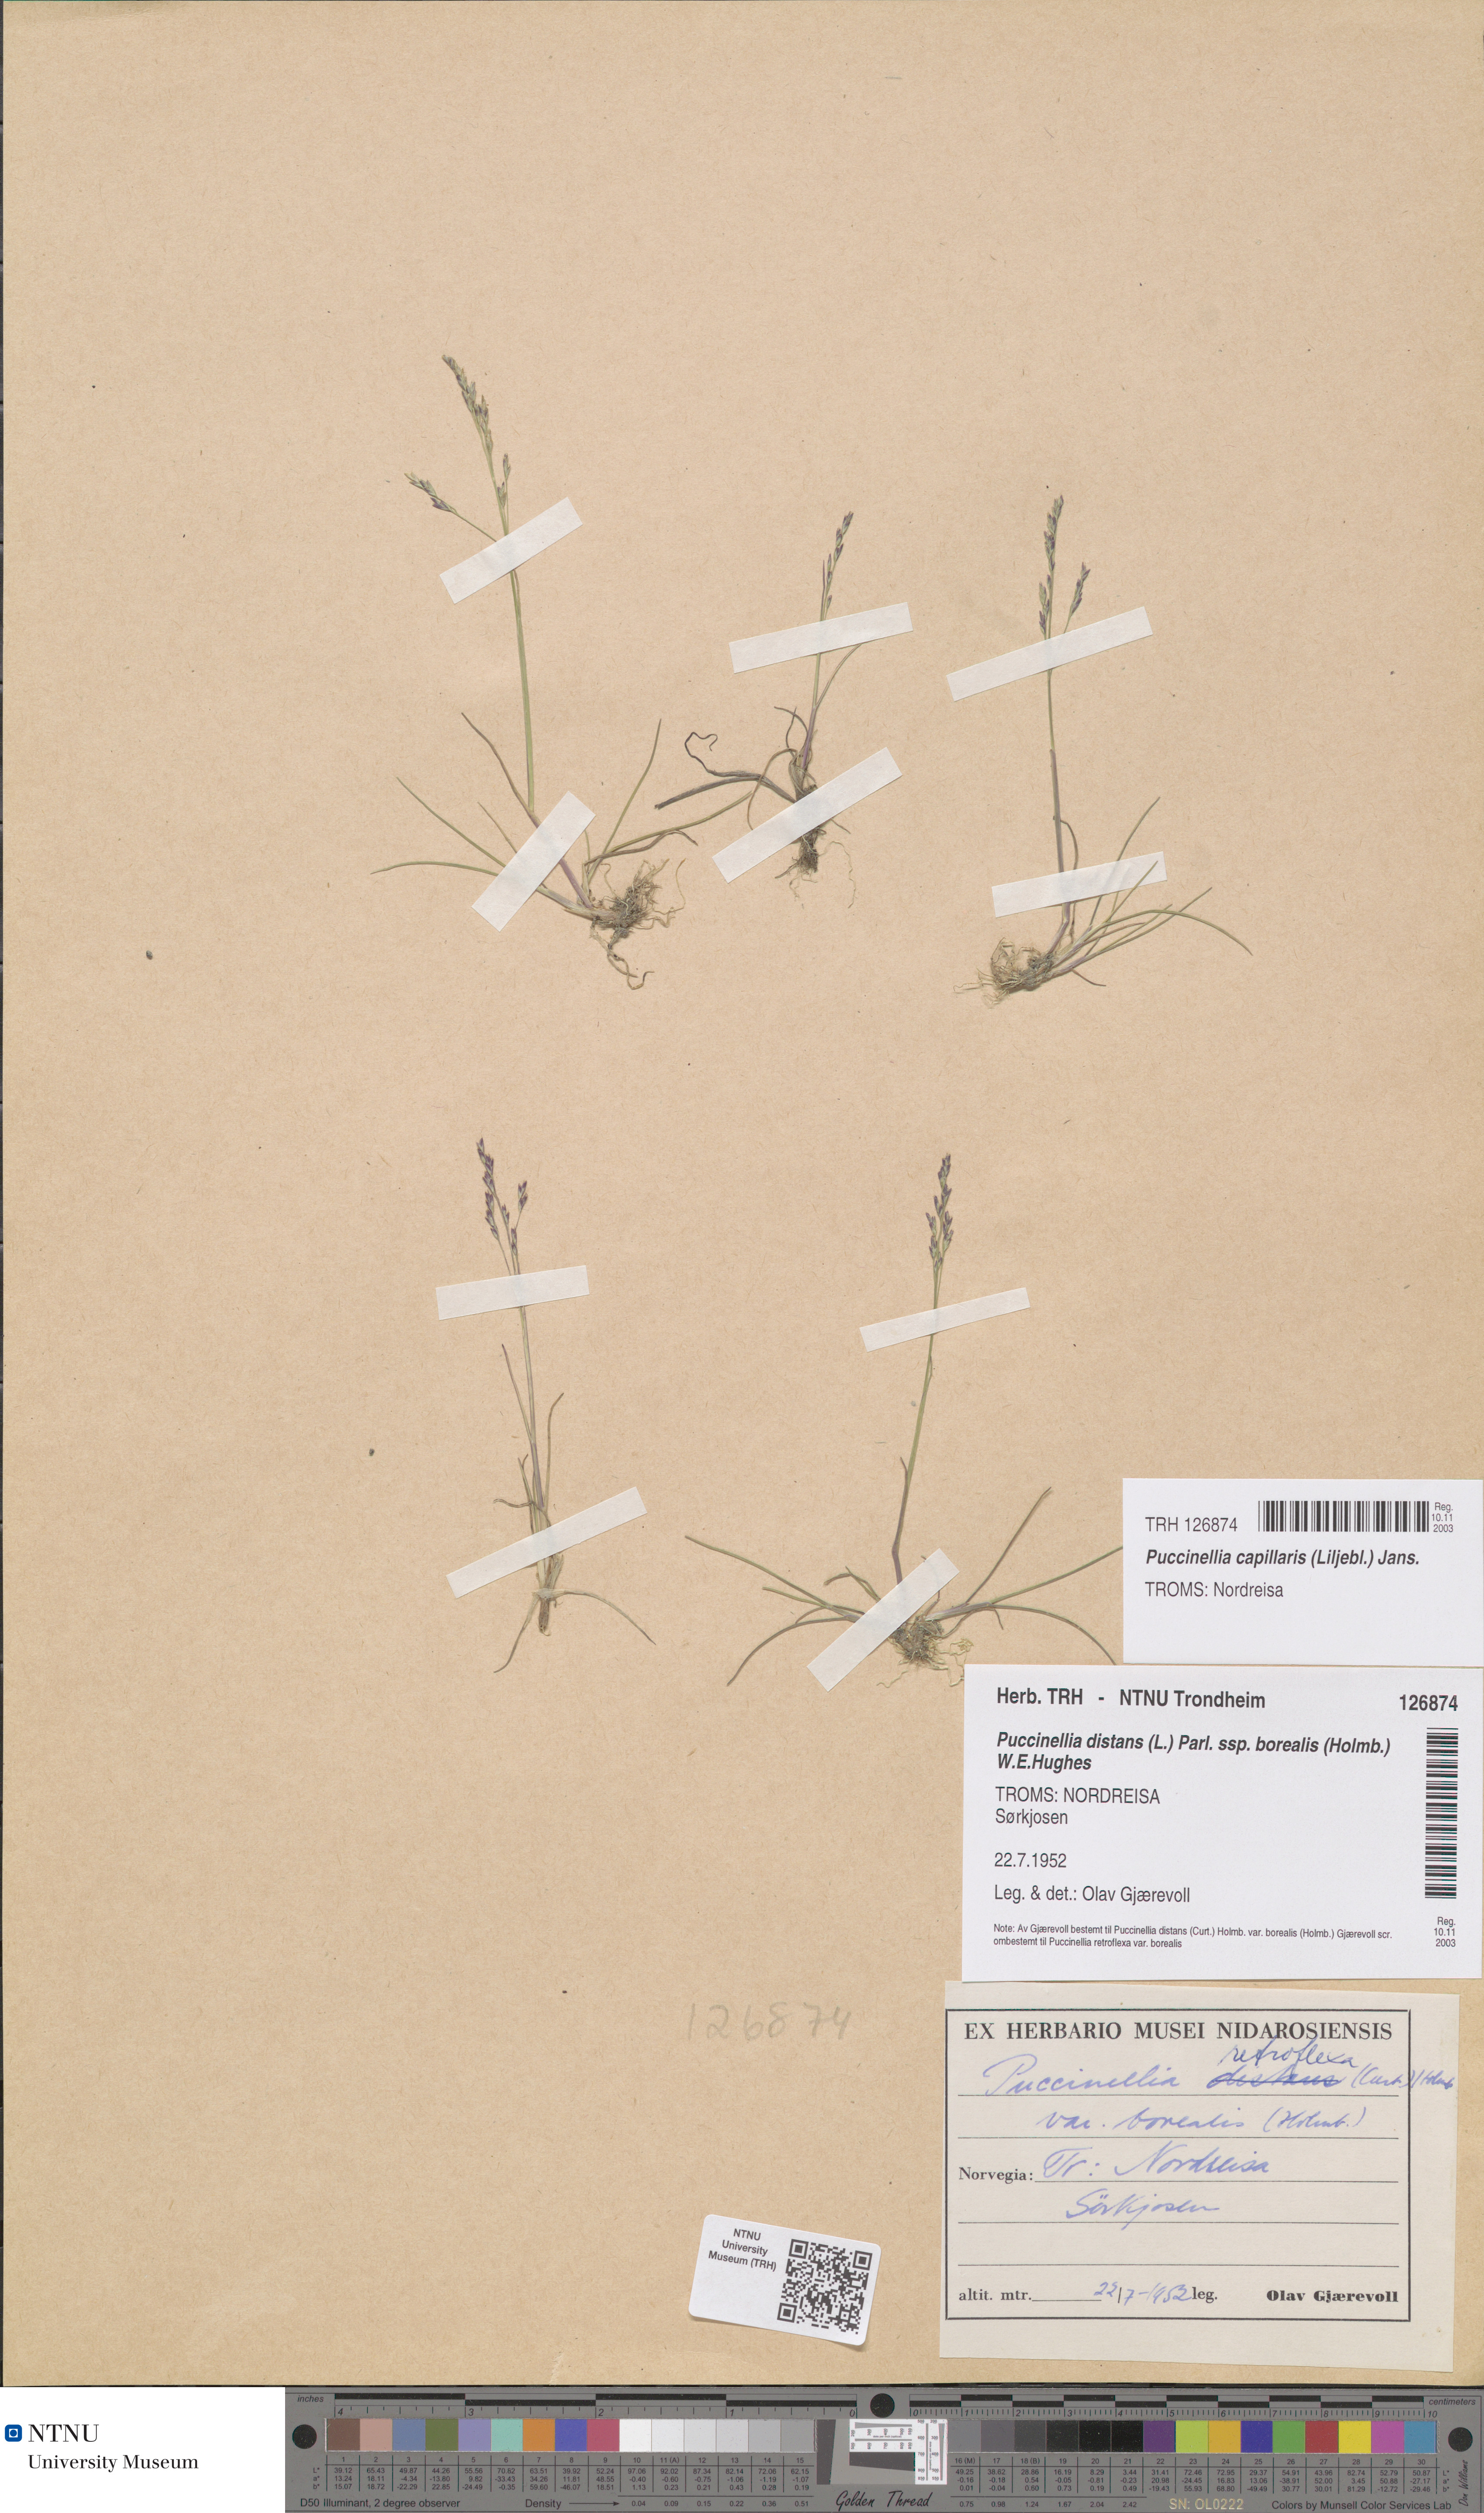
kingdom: Plantae
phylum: Tracheophyta
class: Liliopsida
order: Poales
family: Poaceae
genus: Puccinellia
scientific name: Puccinellia distans
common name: Weeping alkaligrass
